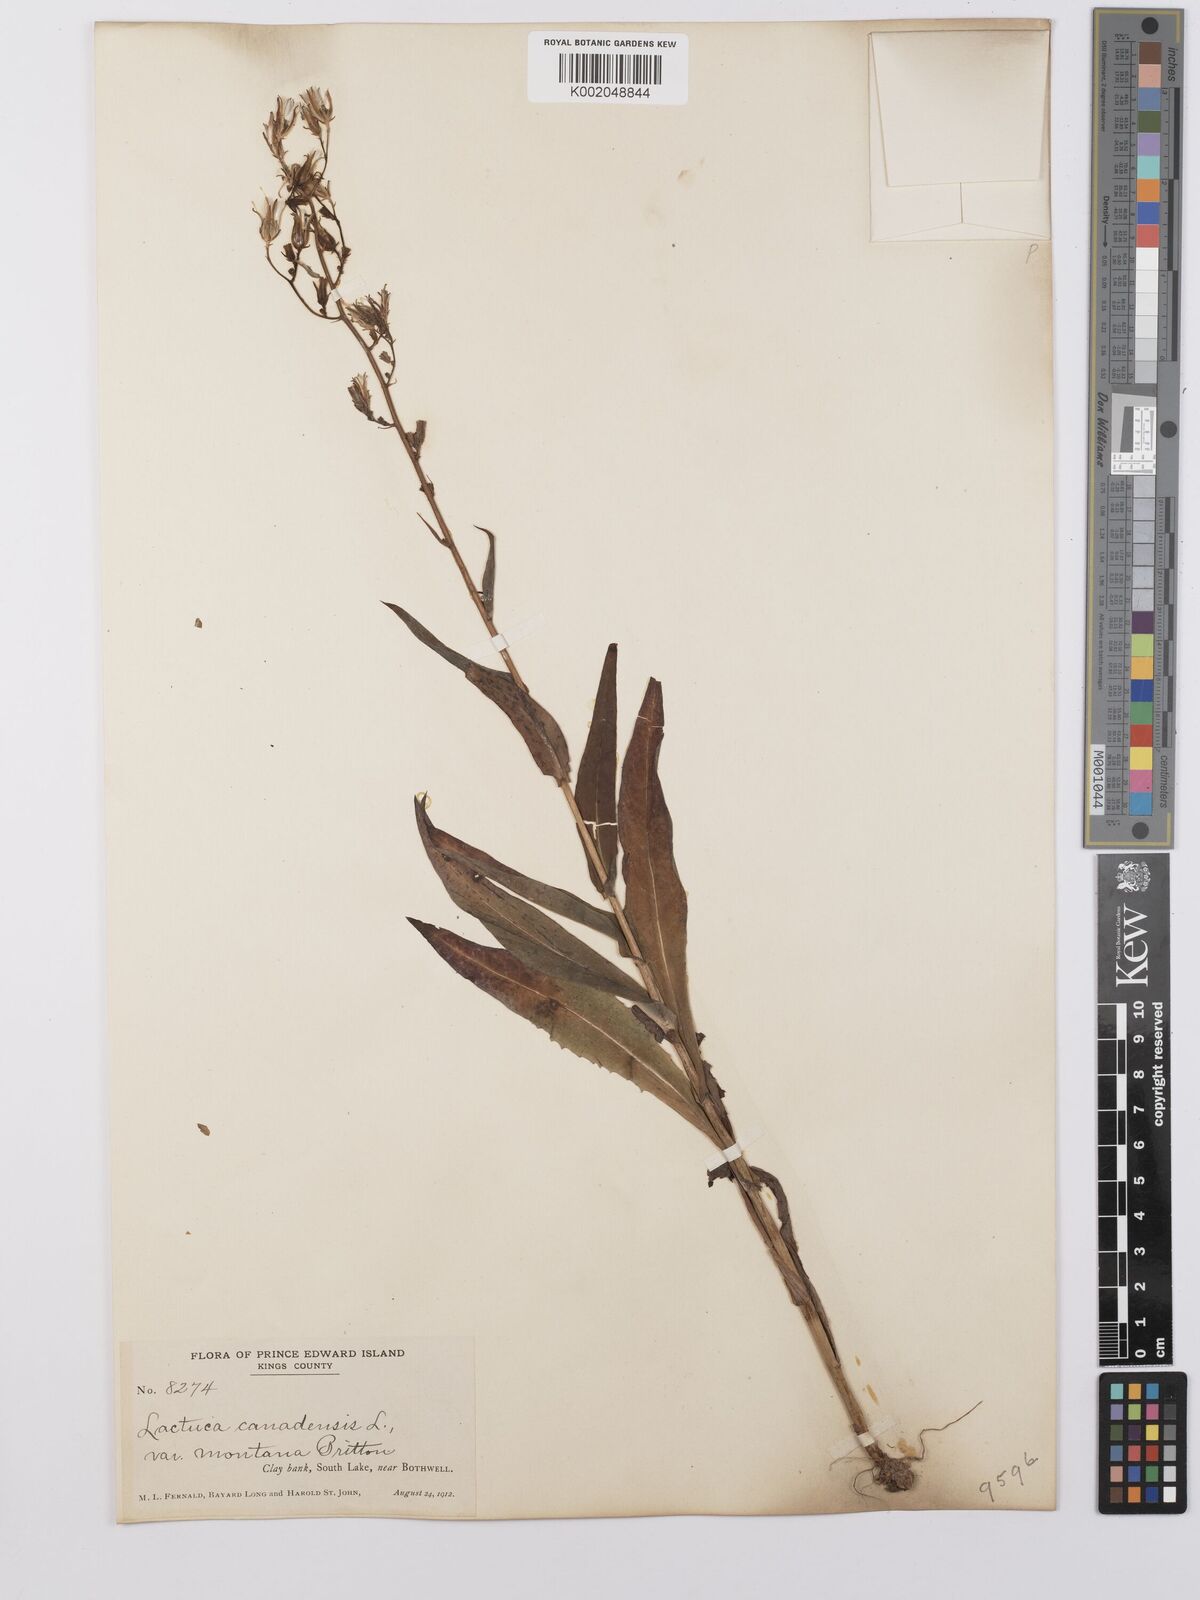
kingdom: Plantae
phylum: Tracheophyta
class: Magnoliopsida
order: Asterales
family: Asteraceae
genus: Lactuca
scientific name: Lactuca canadensis
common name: Canada lettuce
